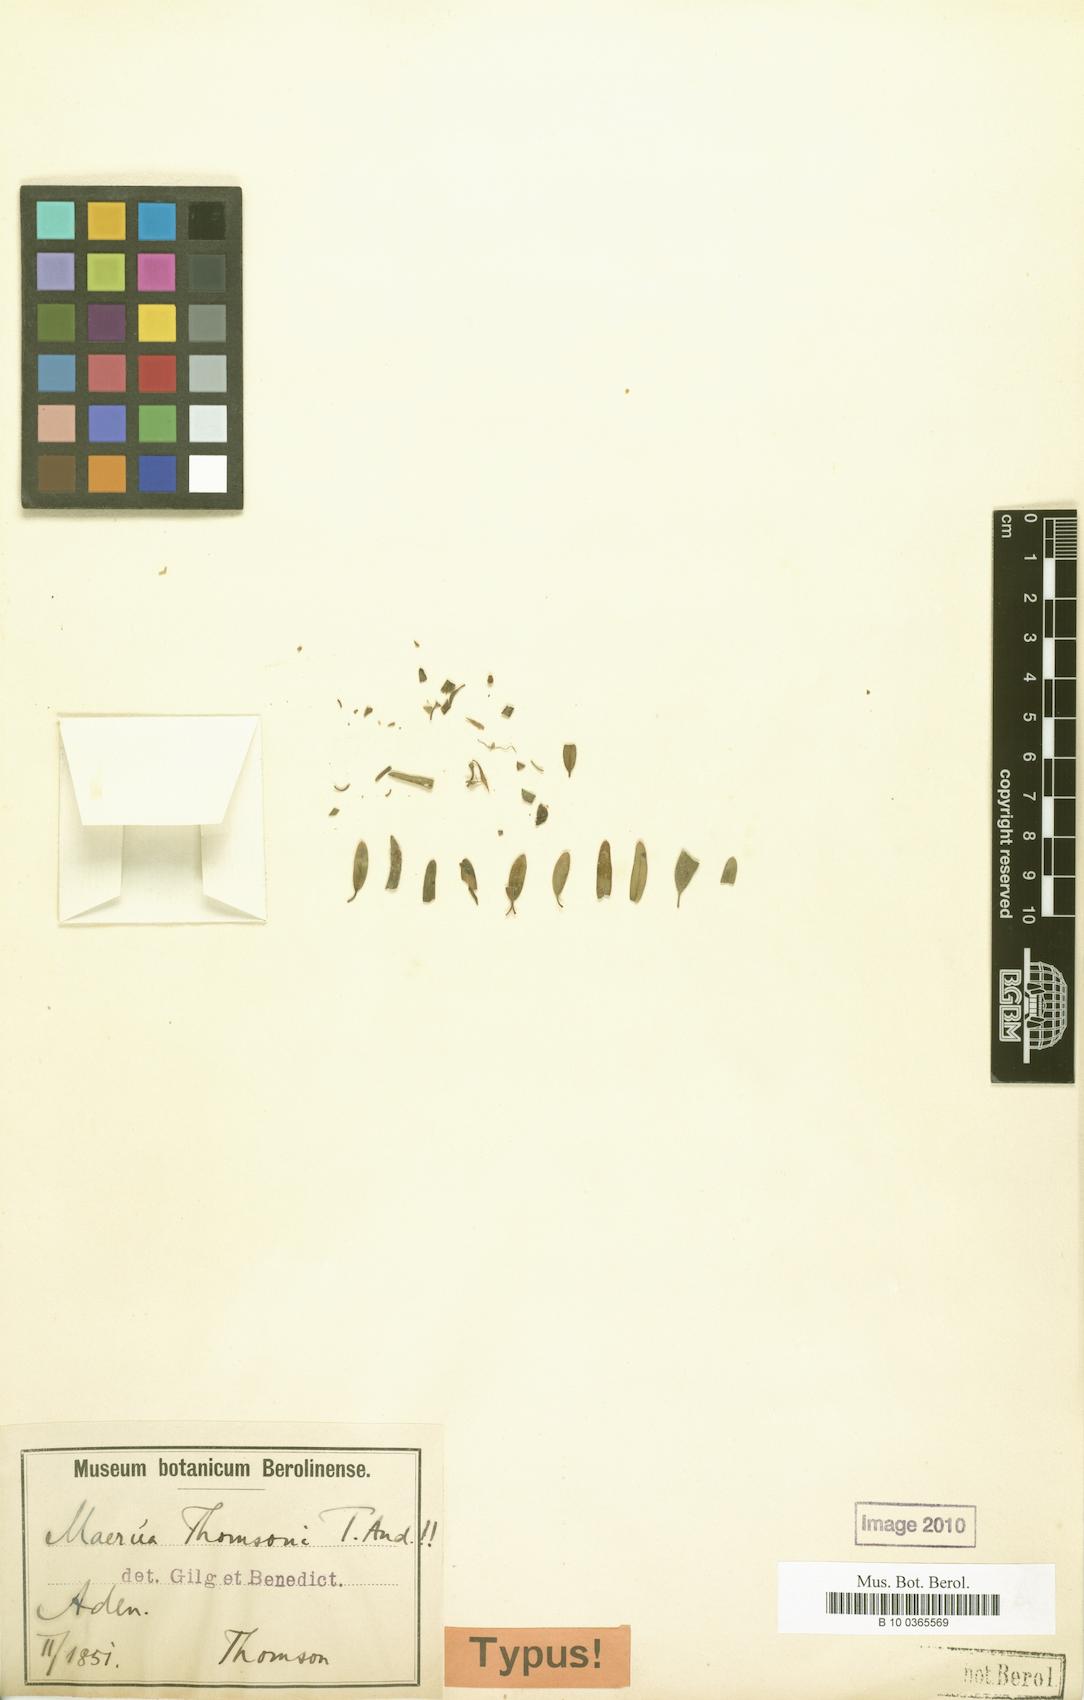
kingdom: Plantae
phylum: Tracheophyta
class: Magnoliopsida
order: Brassicales
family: Capparaceae
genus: Maerua
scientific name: Maerua thomsonii
